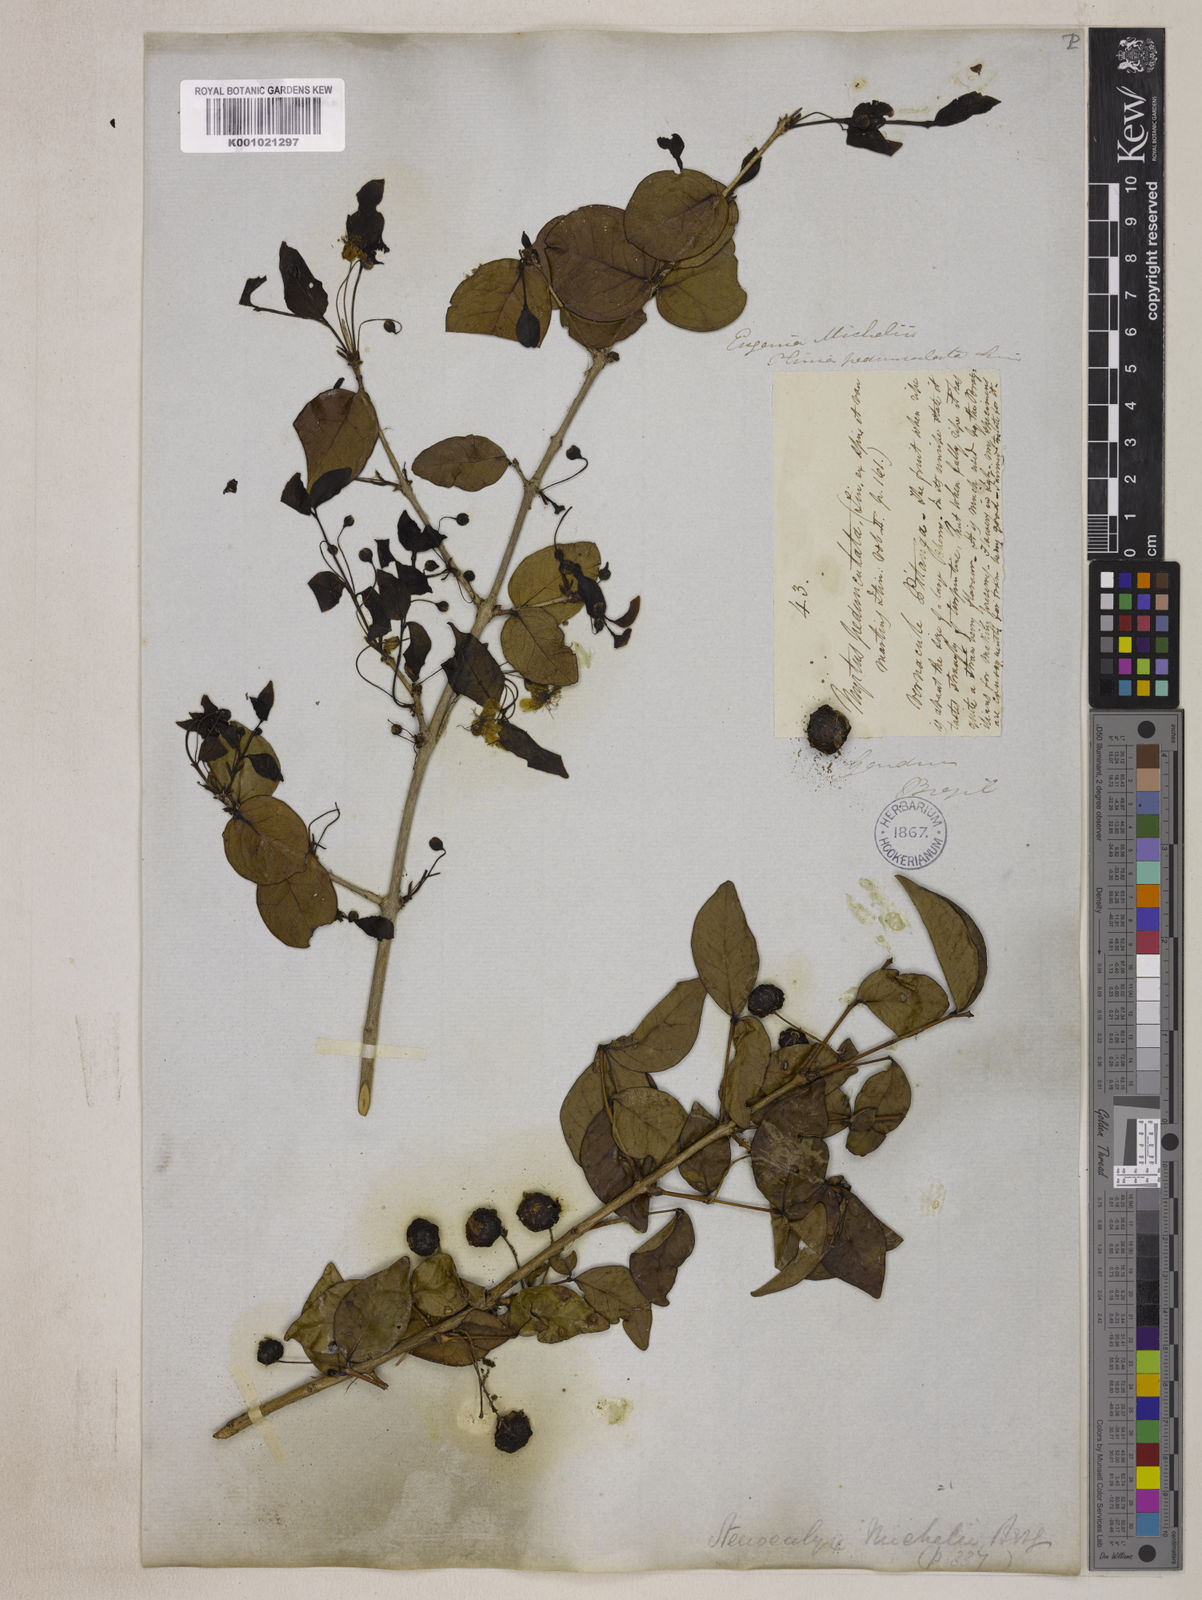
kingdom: Plantae
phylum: Tracheophyta
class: Magnoliopsida
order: Myrtales
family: Myrtaceae
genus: Eugenia
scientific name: Eugenia uniflora
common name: Surinam cherry
